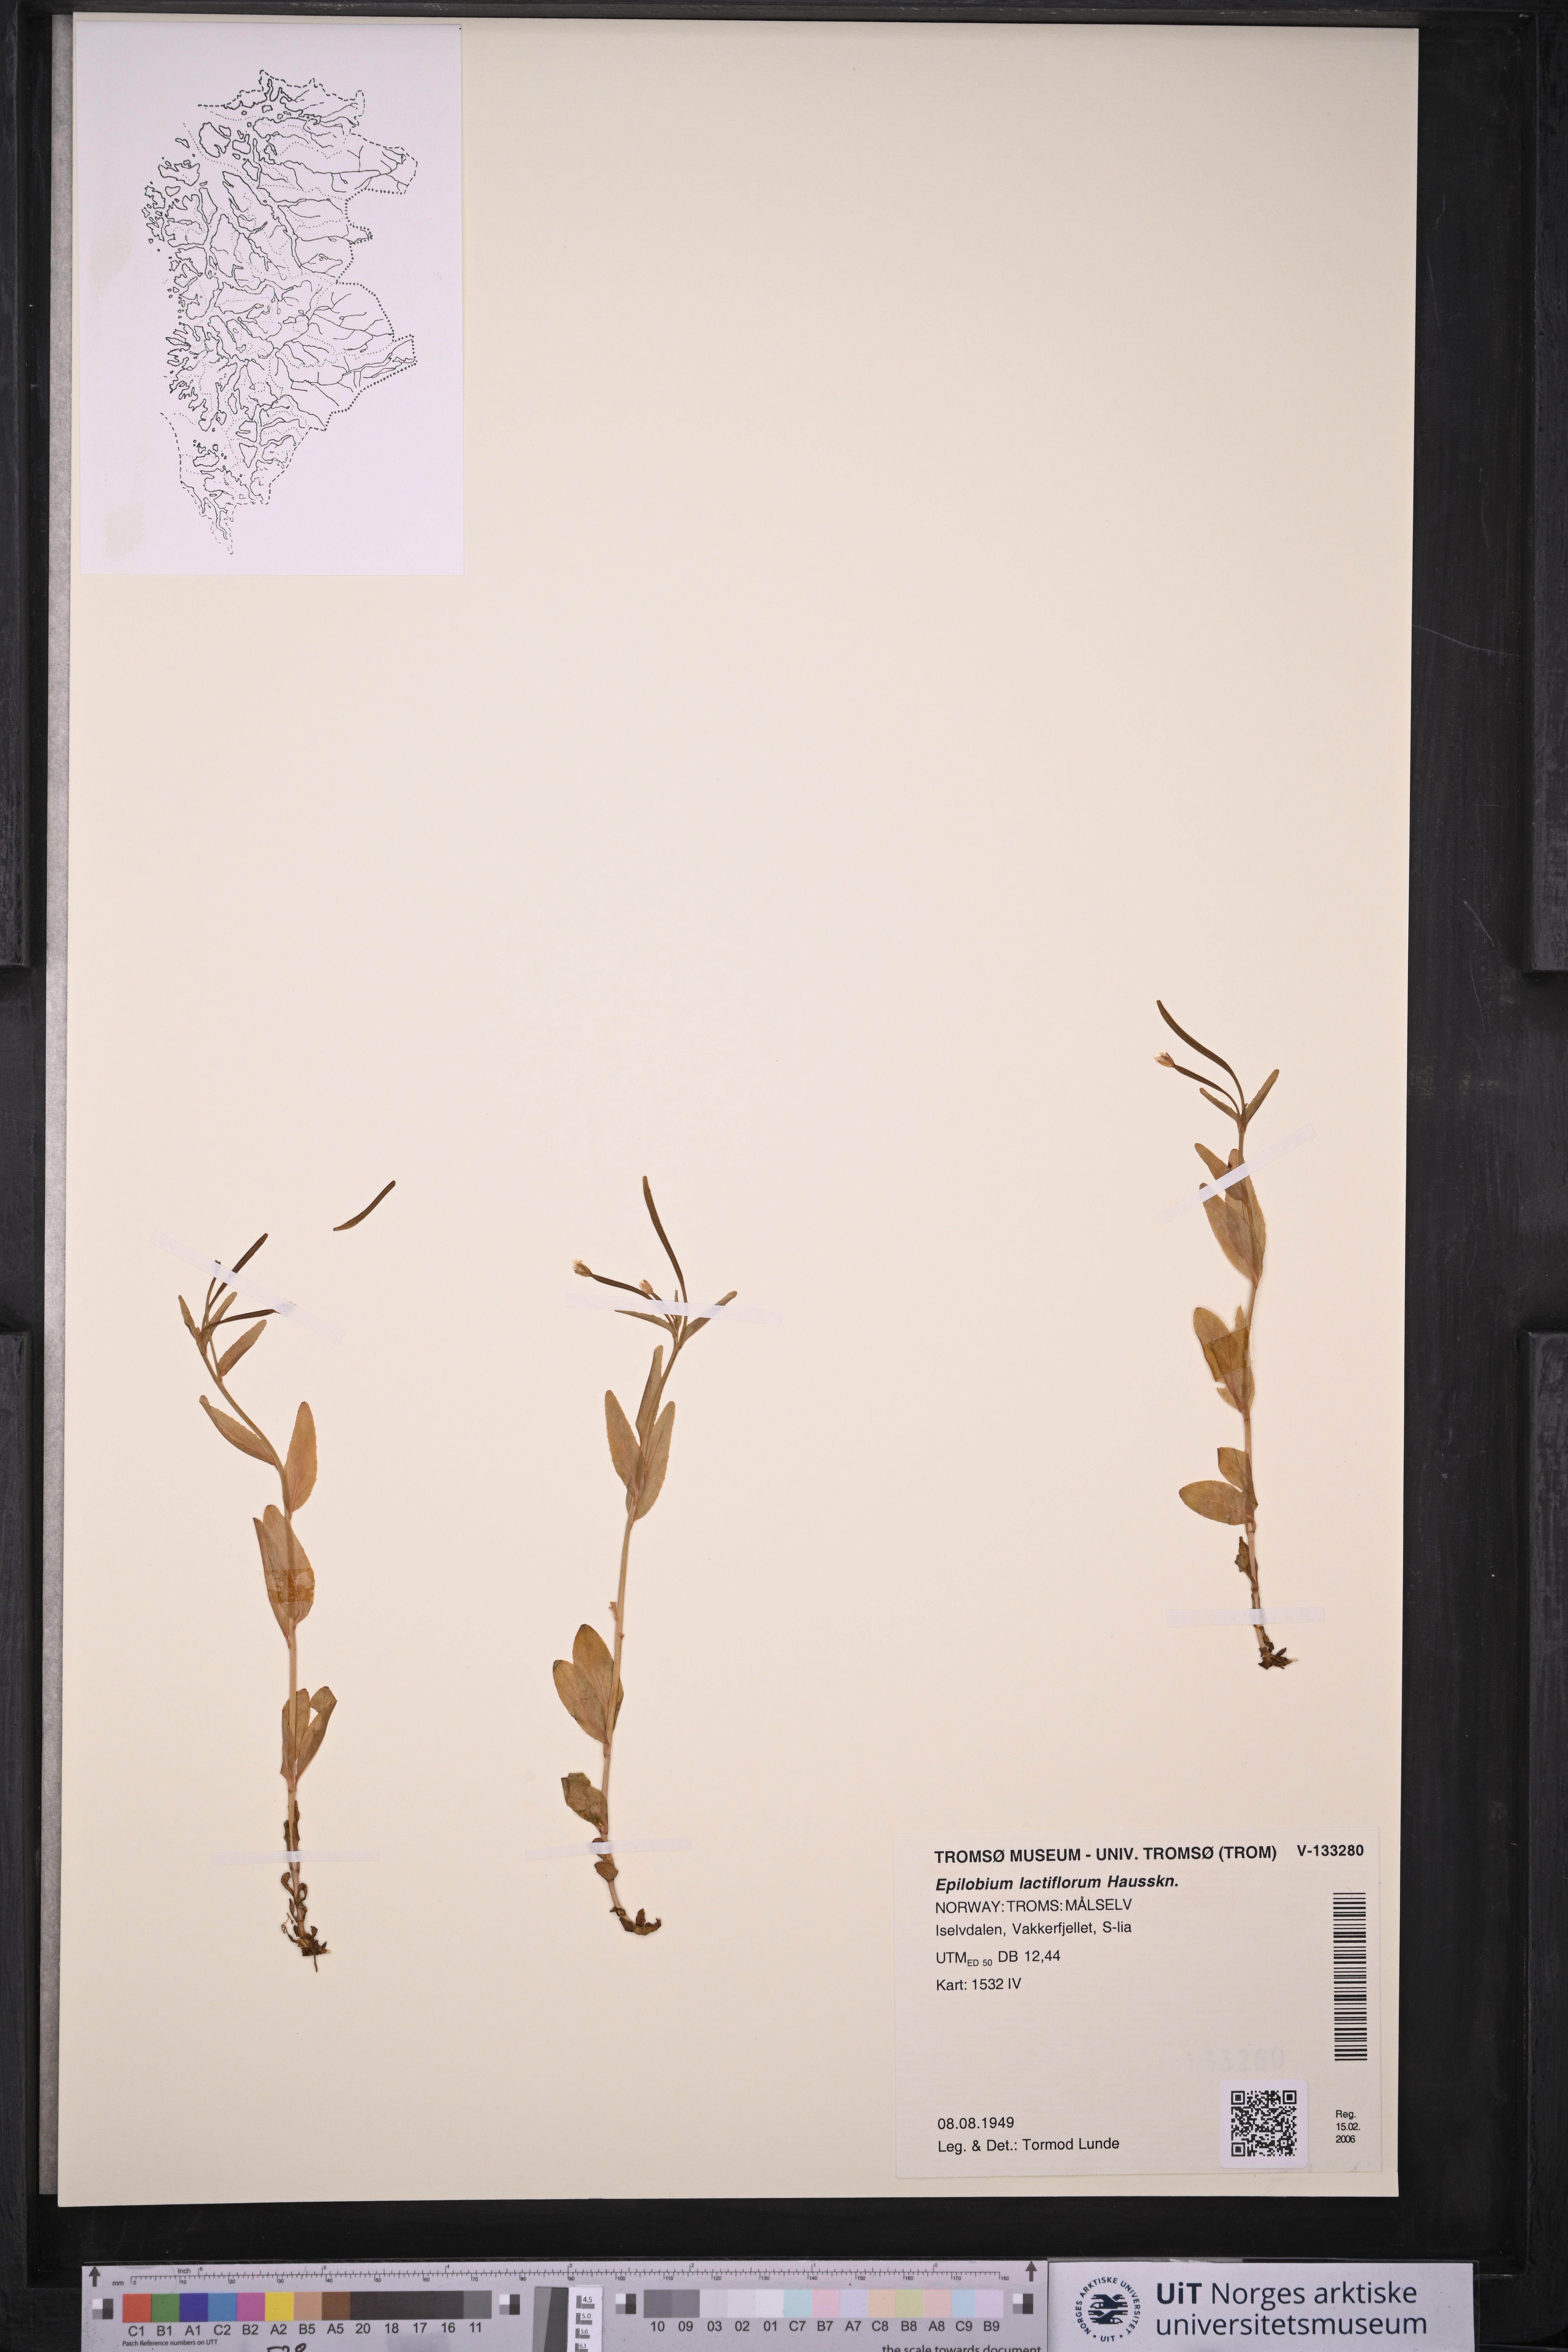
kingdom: Plantae
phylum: Tracheophyta
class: Magnoliopsida
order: Myrtales
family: Onagraceae
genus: Epilobium
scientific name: Epilobium lactiflorum
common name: Milkflower willowherb
